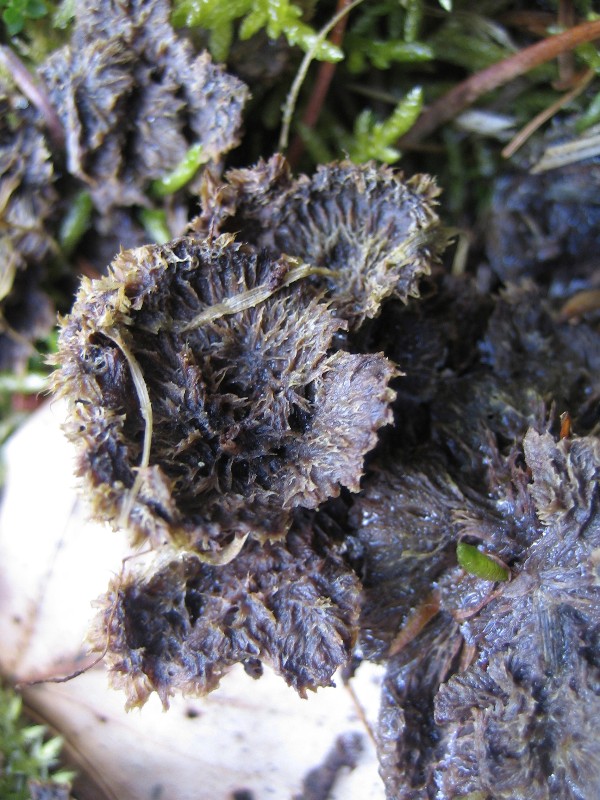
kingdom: Fungi
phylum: Basidiomycota
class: Agaricomycetes
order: Thelephorales
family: Thelephoraceae
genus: Thelephora
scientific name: Thelephora terrestris
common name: fliget frynsesvamp
